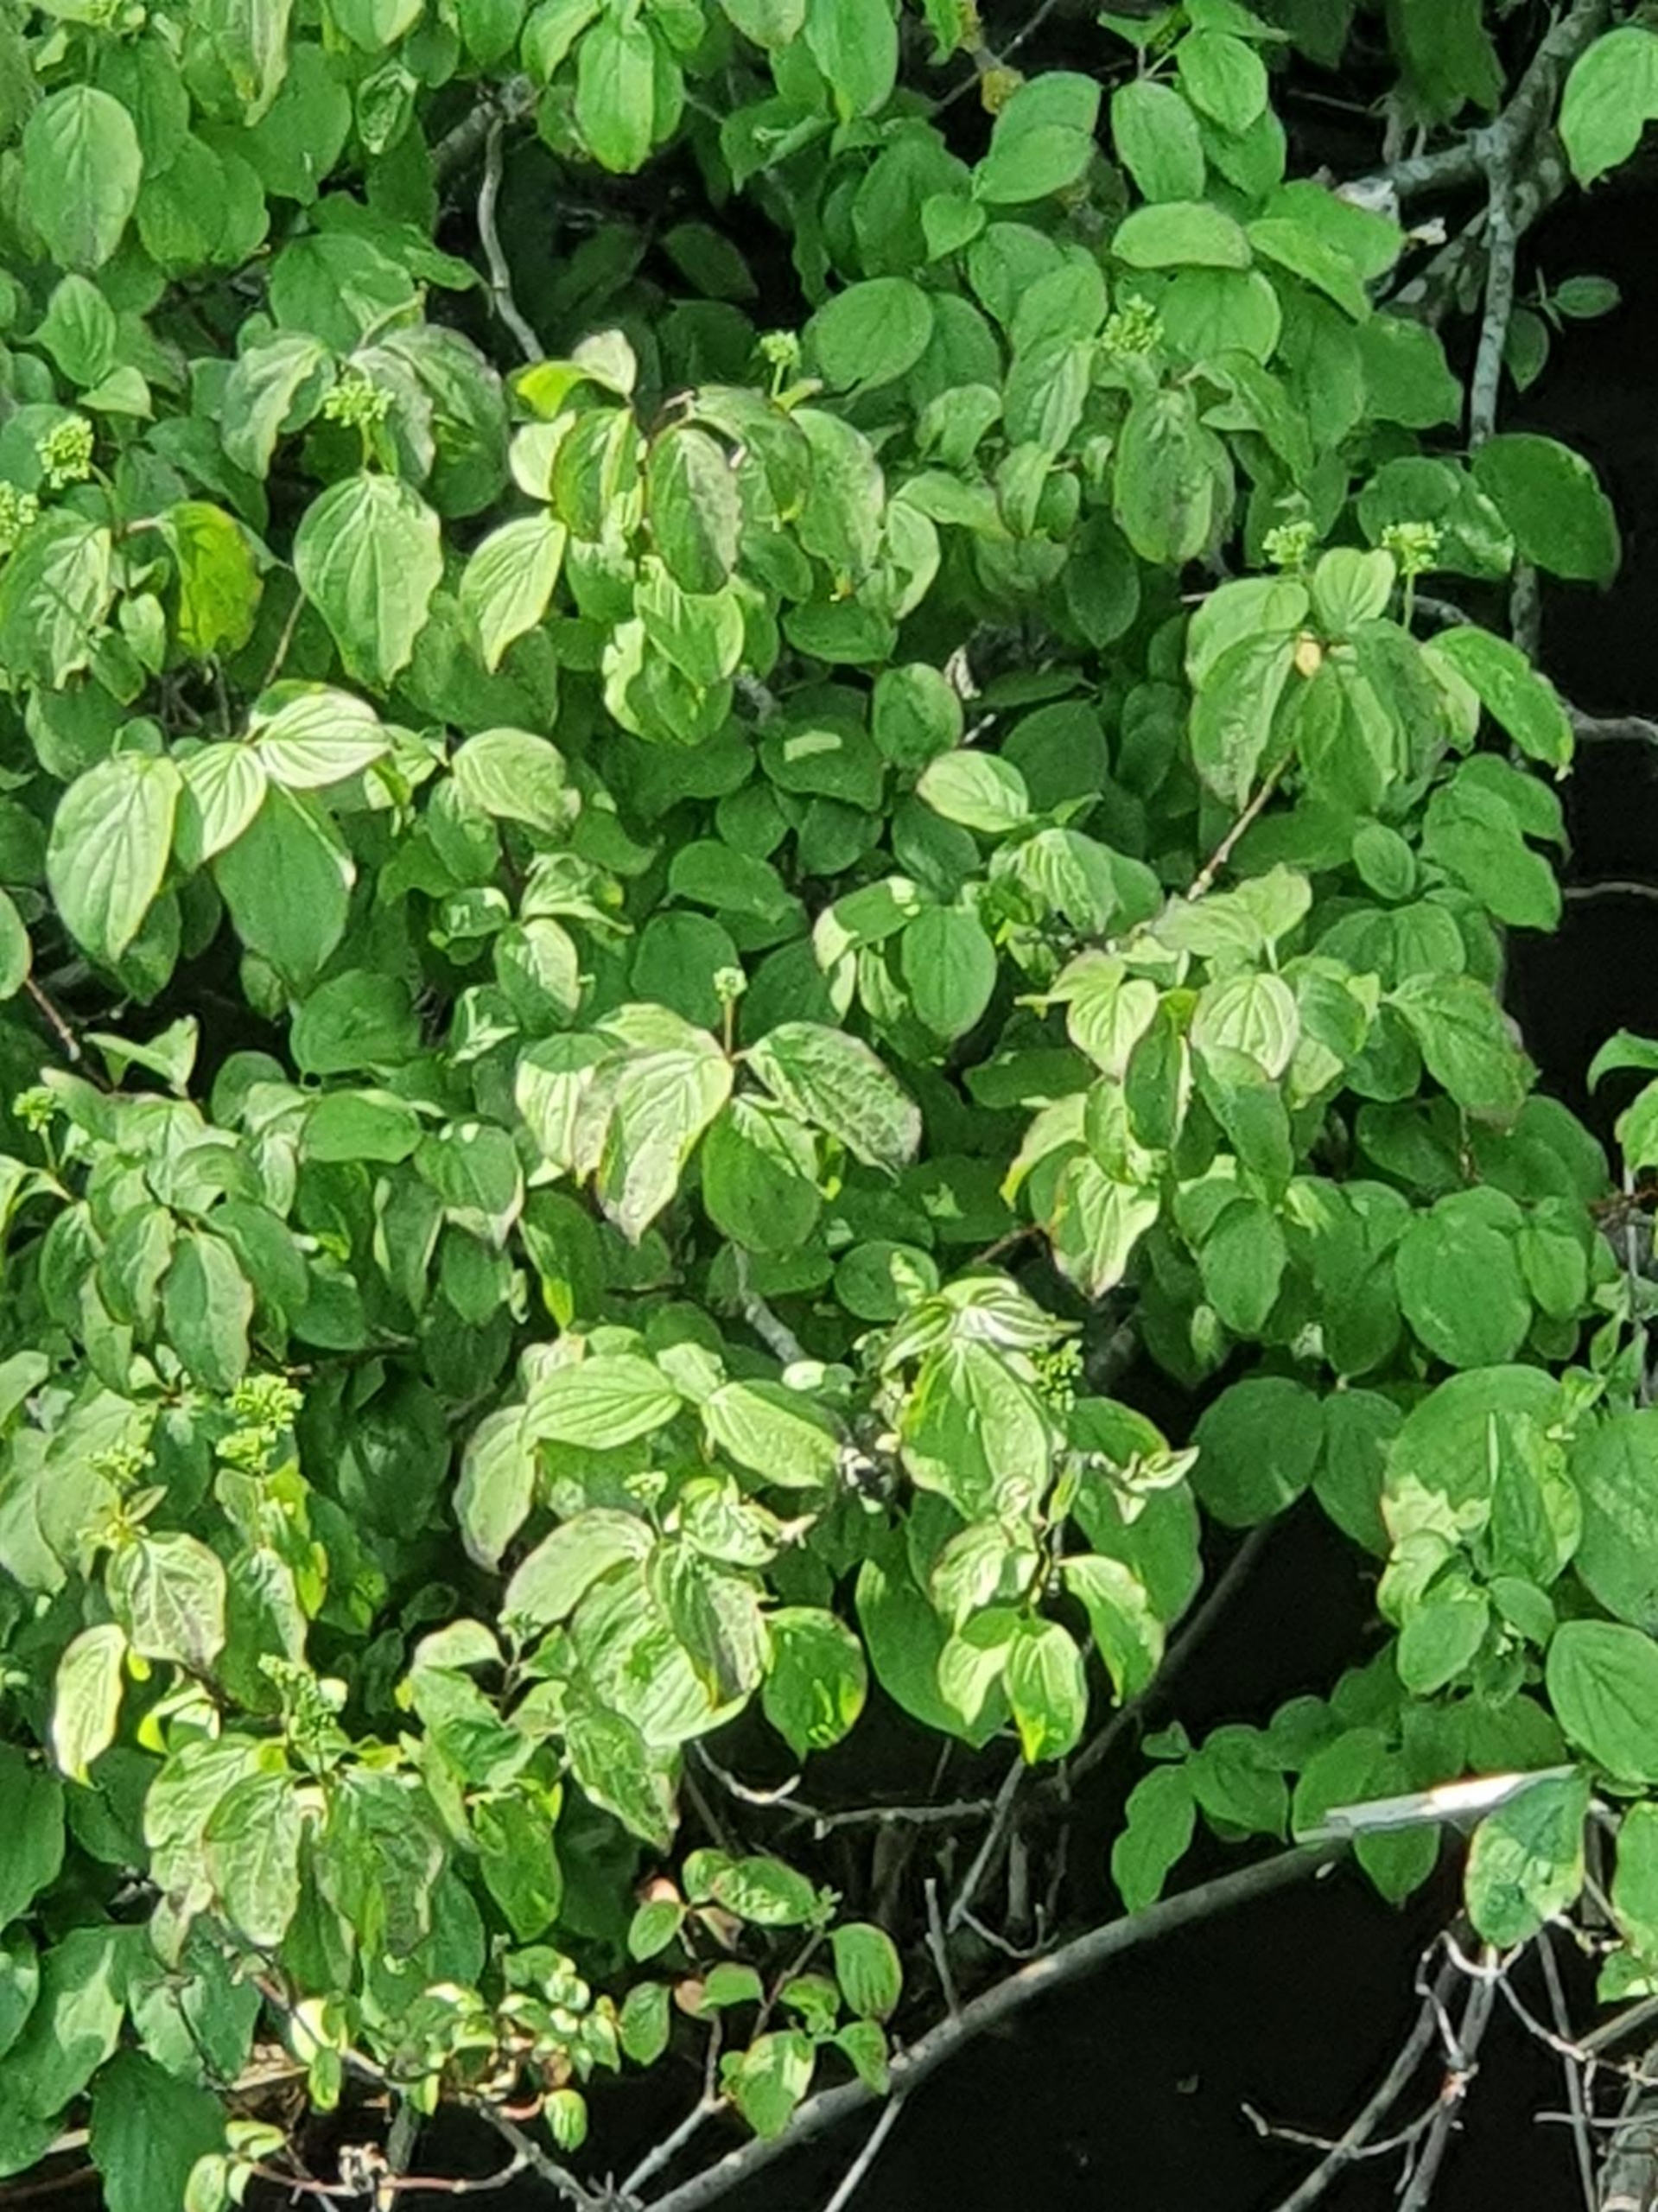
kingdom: Plantae
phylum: Tracheophyta
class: Magnoliopsida
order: Cornales
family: Cornaceae
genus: Cornus
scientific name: Cornus sanguinea
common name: Rød kornel
